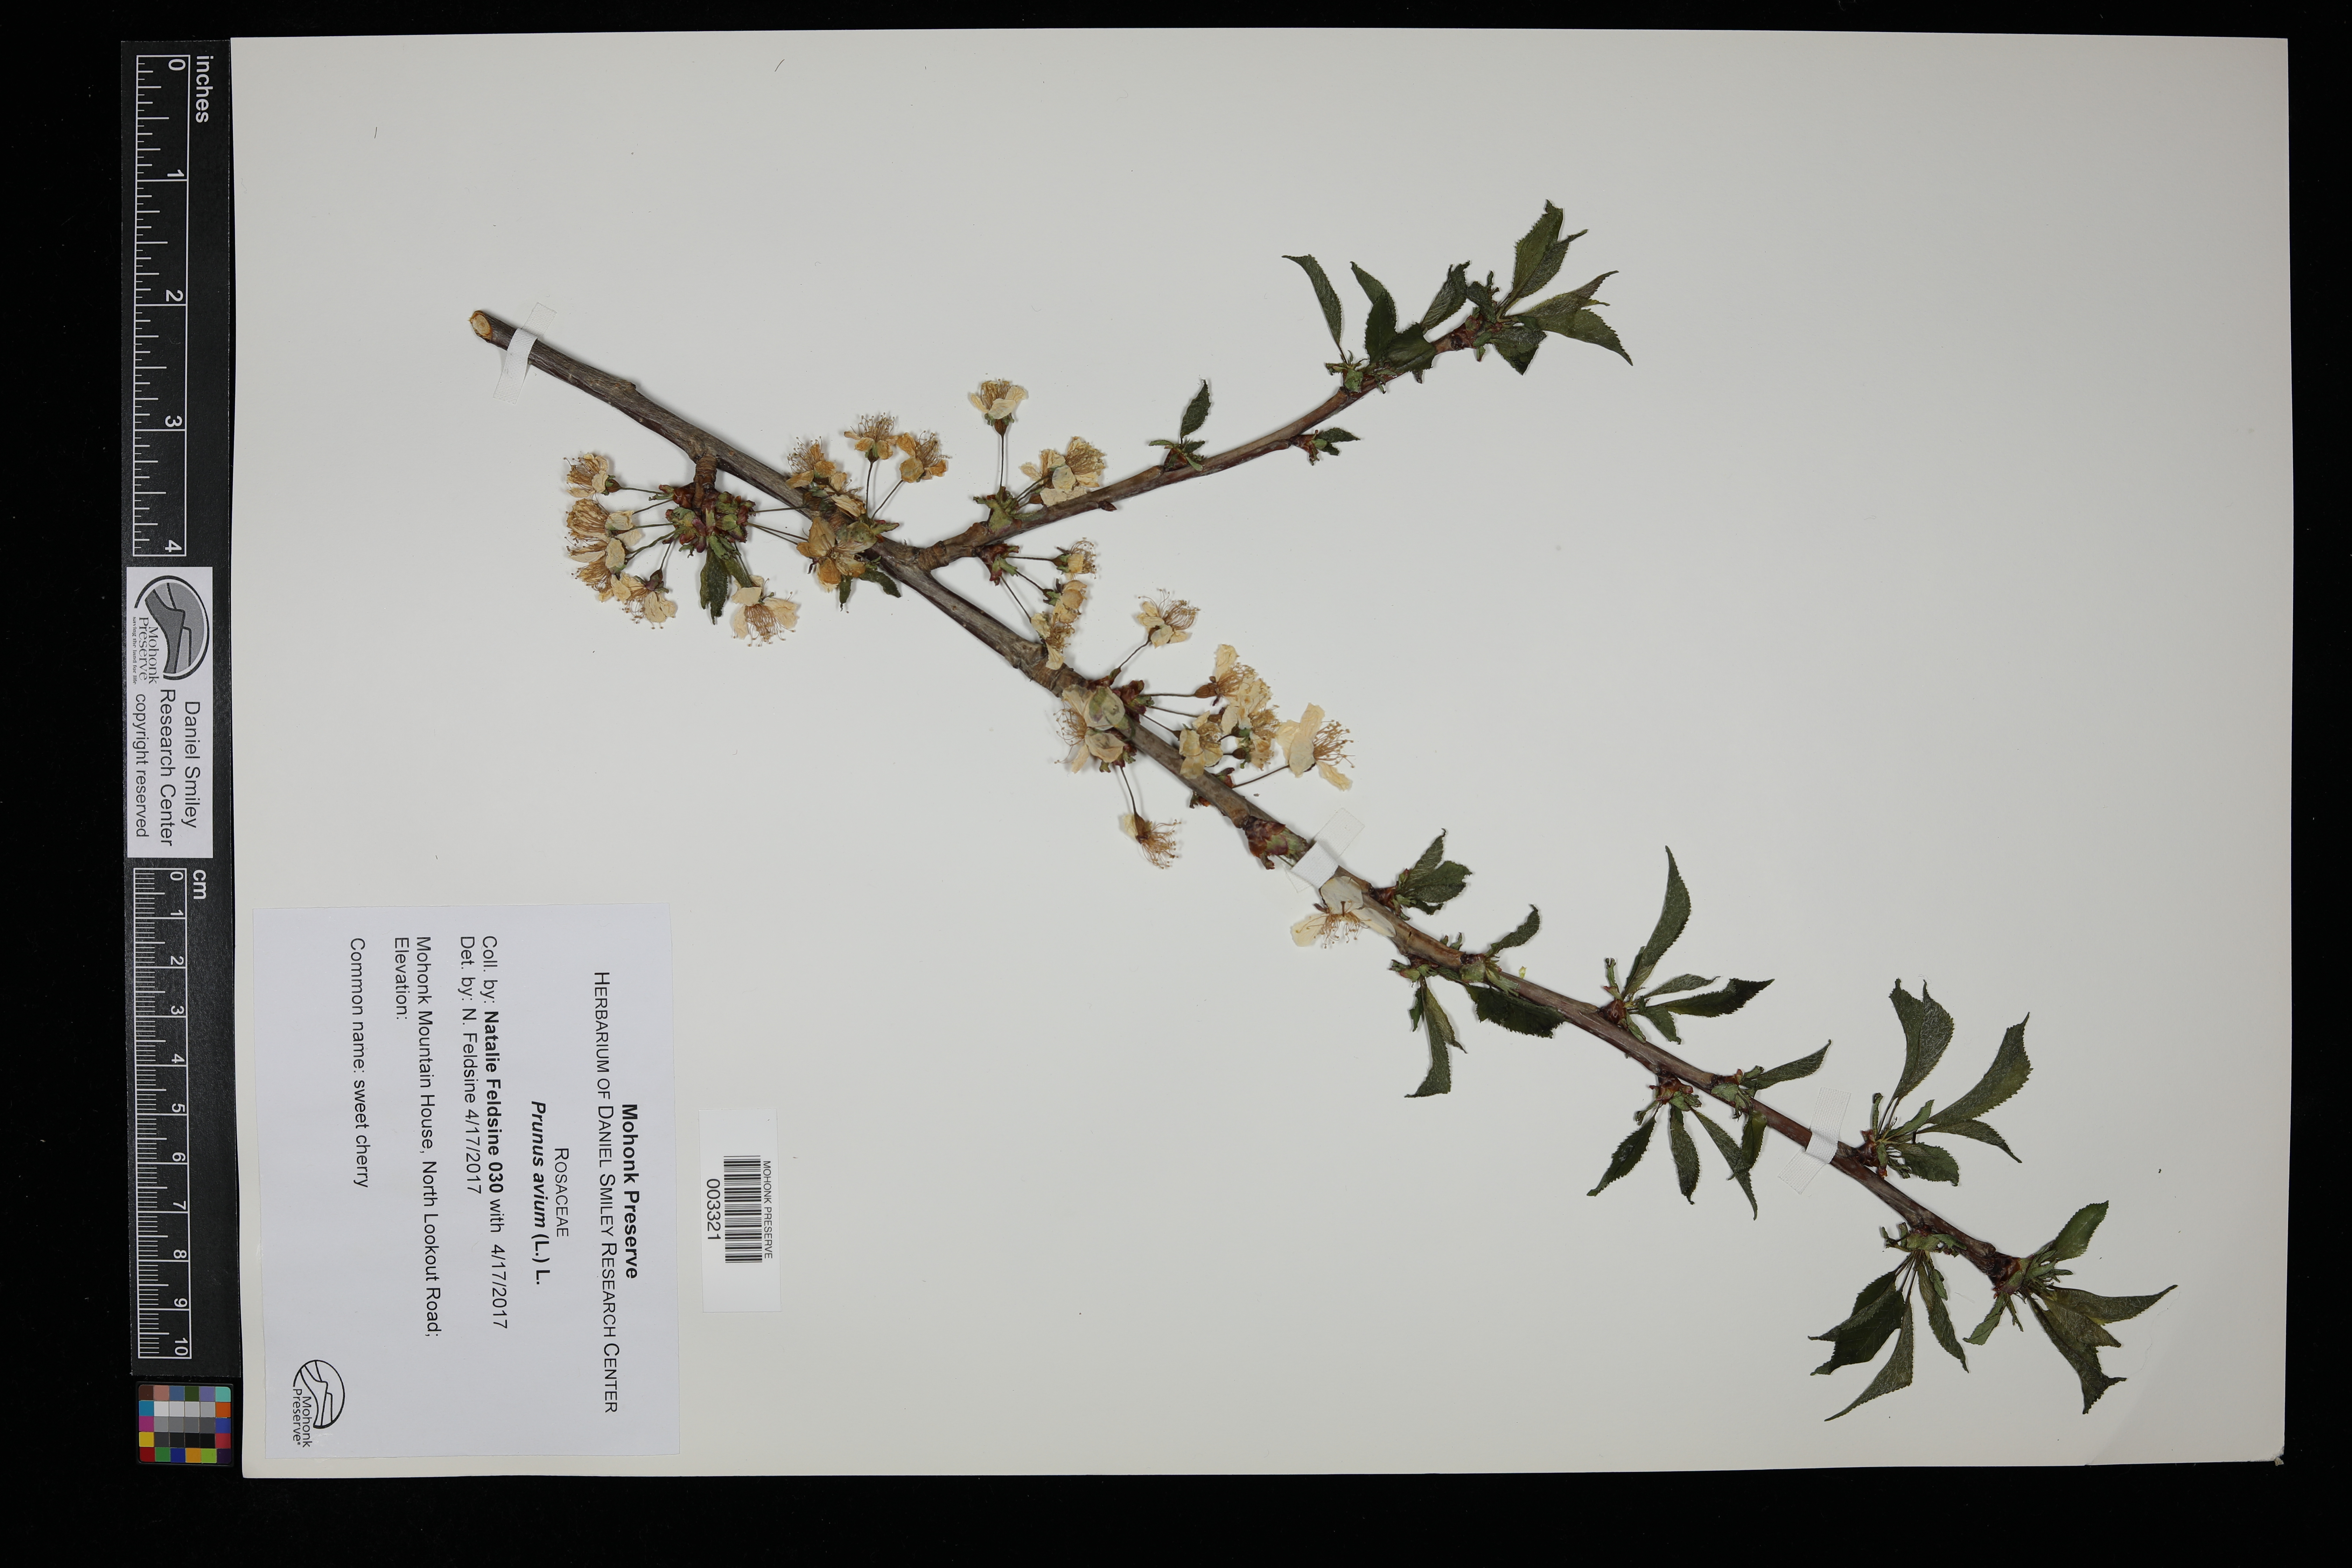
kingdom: Plantae
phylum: Tracheophyta
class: Magnoliopsida
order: Rosales
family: Rosaceae
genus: Prunus
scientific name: Prunus avium
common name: Sweet cherry
